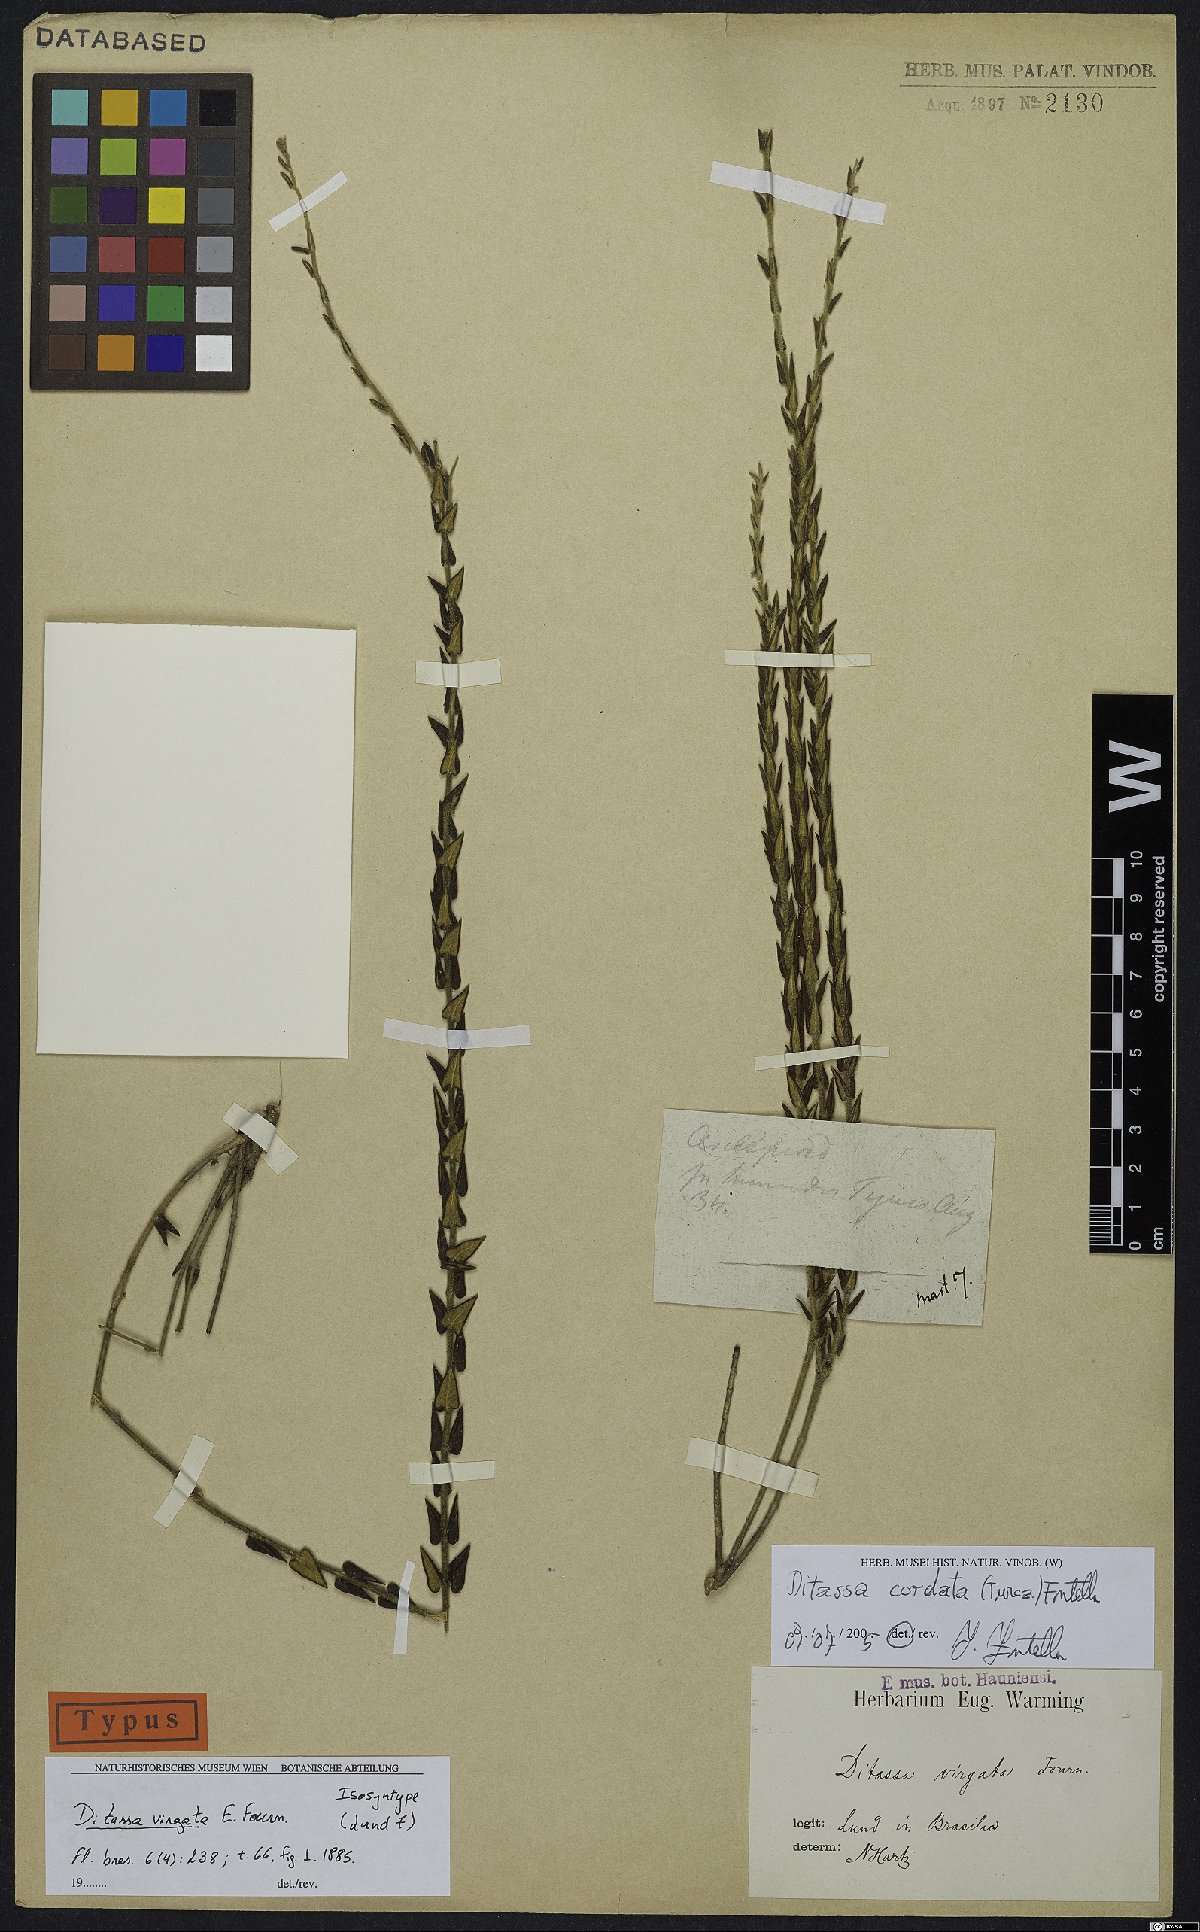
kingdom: Plantae
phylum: Tracheophyta
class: Magnoliopsida
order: Gentianales
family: Apocynaceae
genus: Minaria
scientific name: Minaria cordata
